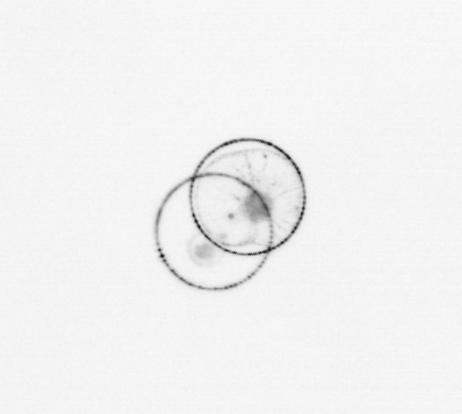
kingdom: Chromista
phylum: Myzozoa
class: Dinophyceae
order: Noctilucales
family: Noctilucaceae
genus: Noctiluca
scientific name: Noctiluca scintillans
